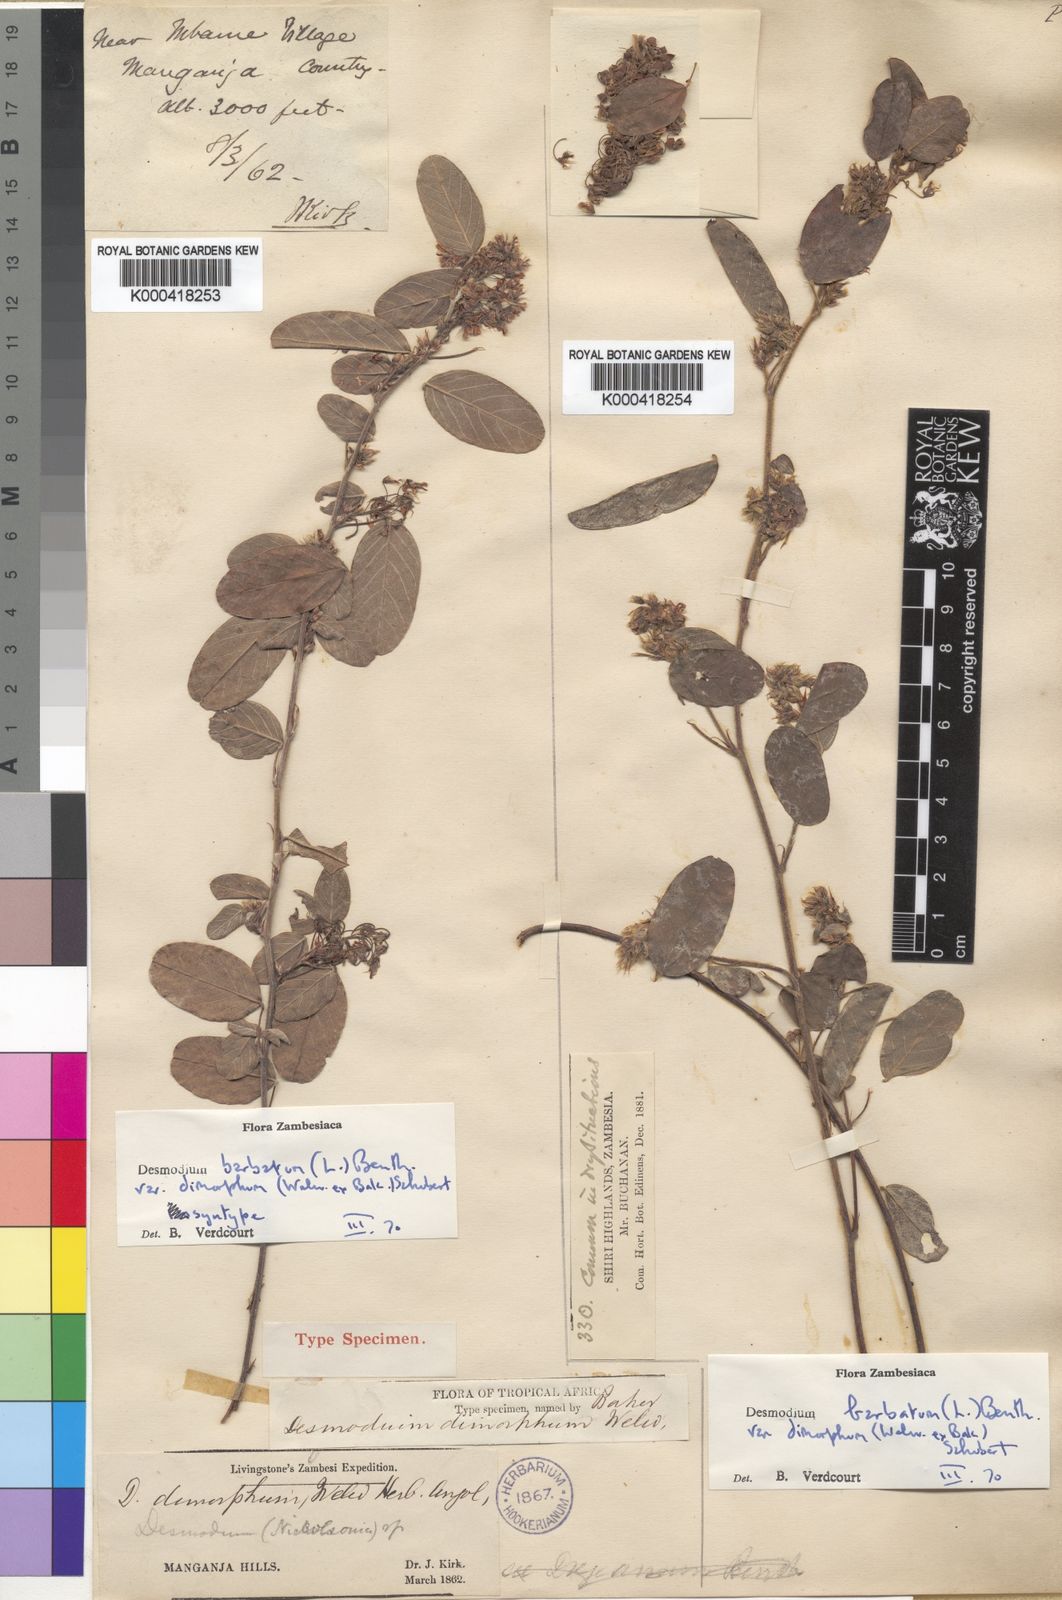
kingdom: Plantae
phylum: Tracheophyta
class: Magnoliopsida
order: Fabales
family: Fabaceae
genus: Grona
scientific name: Grona barbata
